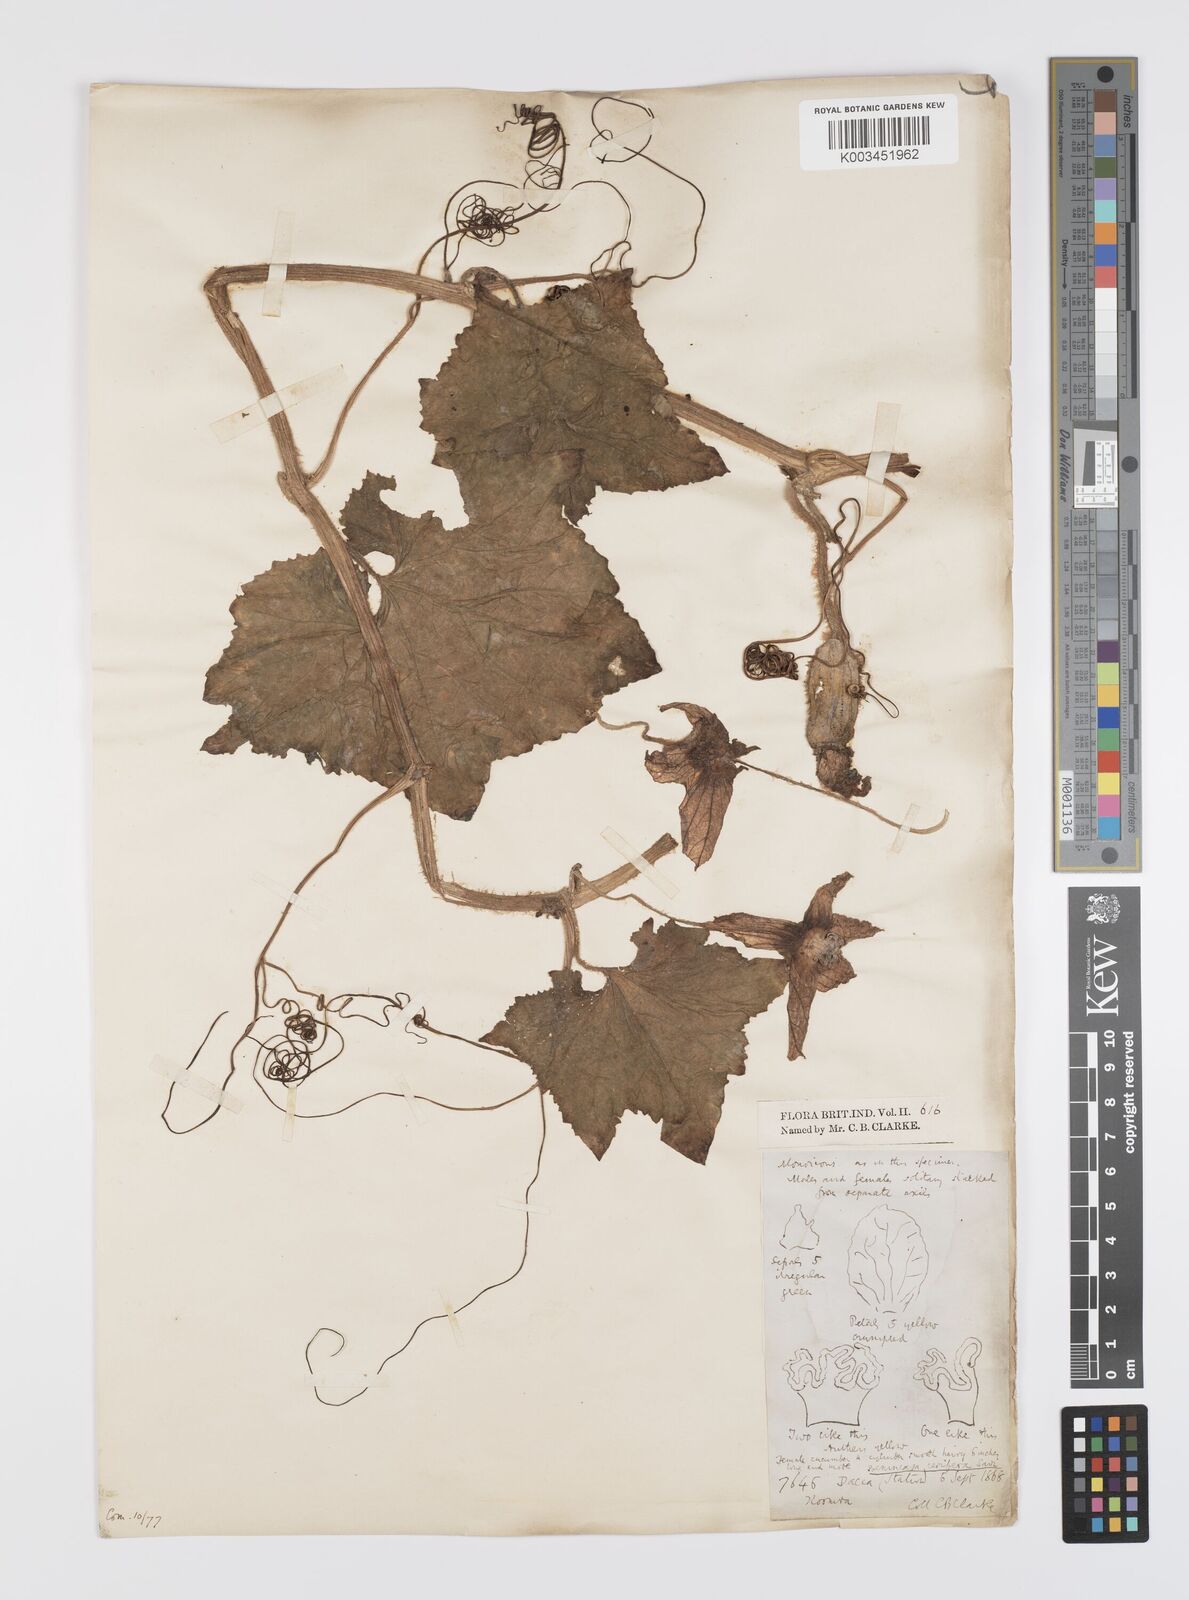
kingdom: Plantae
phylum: Tracheophyta
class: Magnoliopsida
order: Cucurbitales
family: Cucurbitaceae
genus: Benincasa
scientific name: Benincasa hispida
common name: Chinese-watermelon
